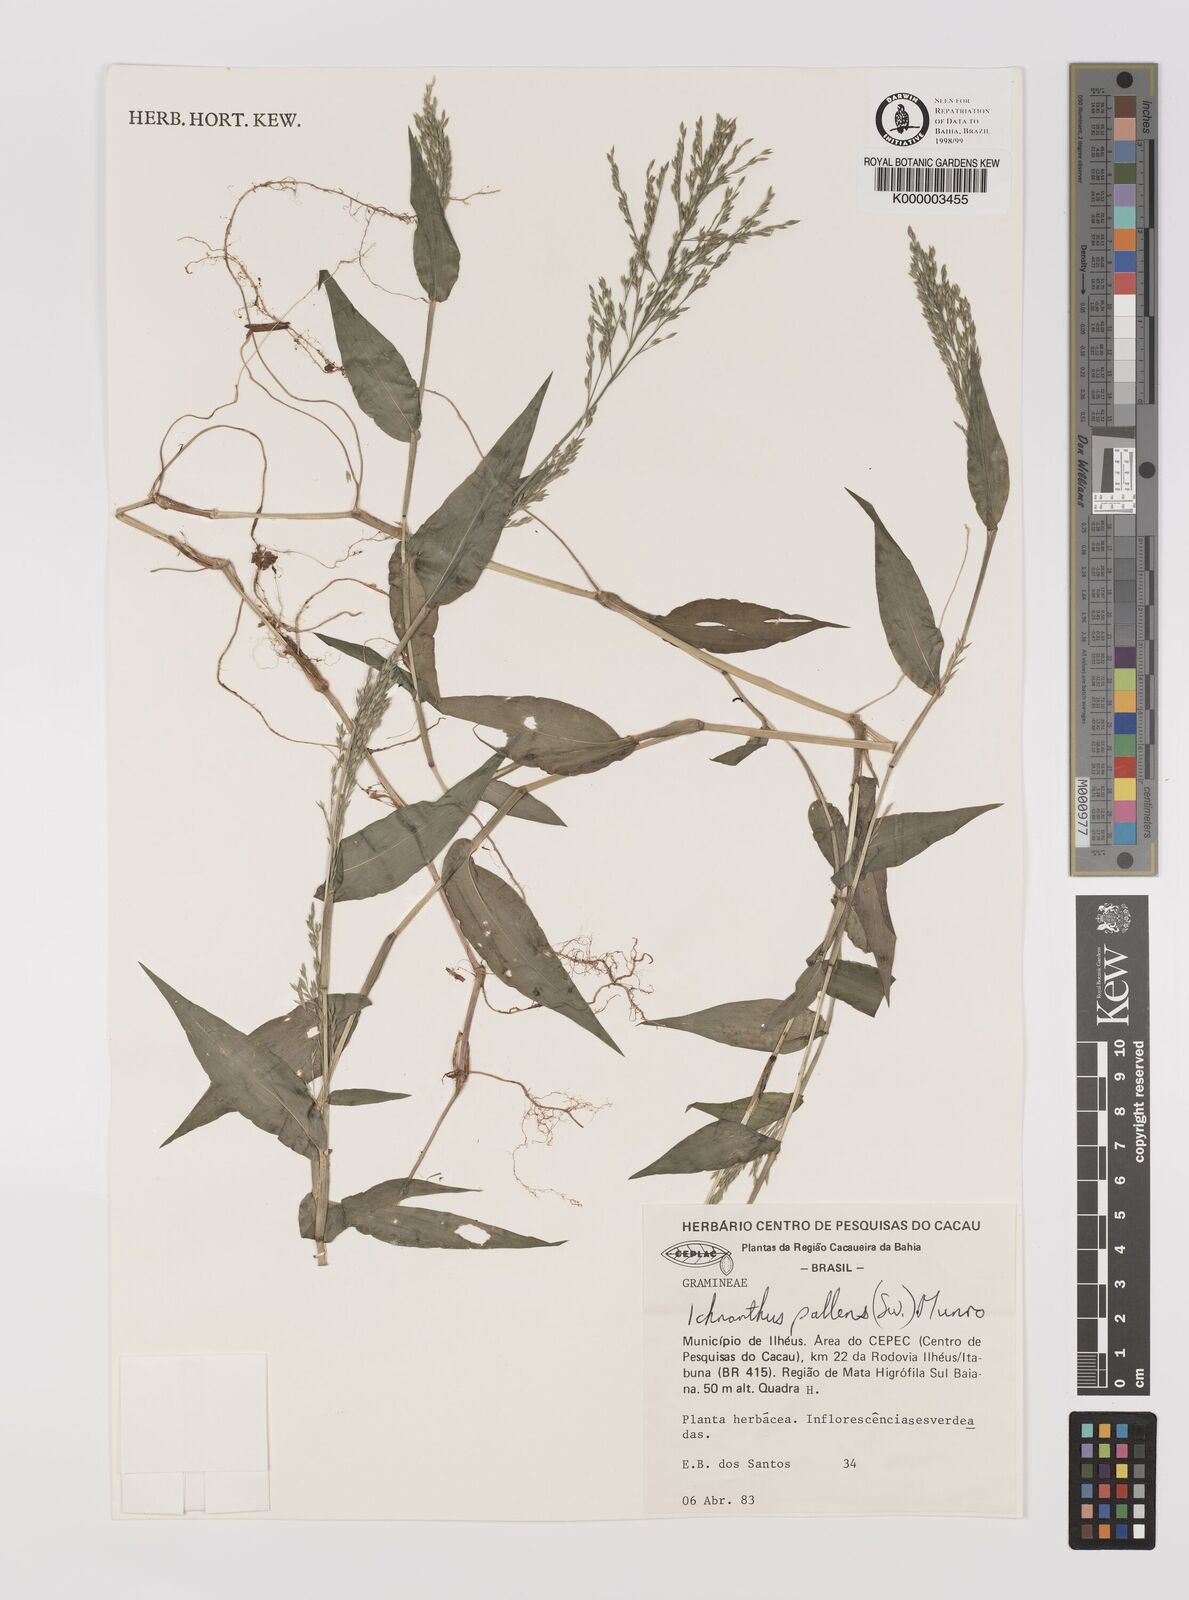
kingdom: Plantae
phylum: Tracheophyta
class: Liliopsida
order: Poales
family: Poaceae
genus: Ichnanthus
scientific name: Ichnanthus
